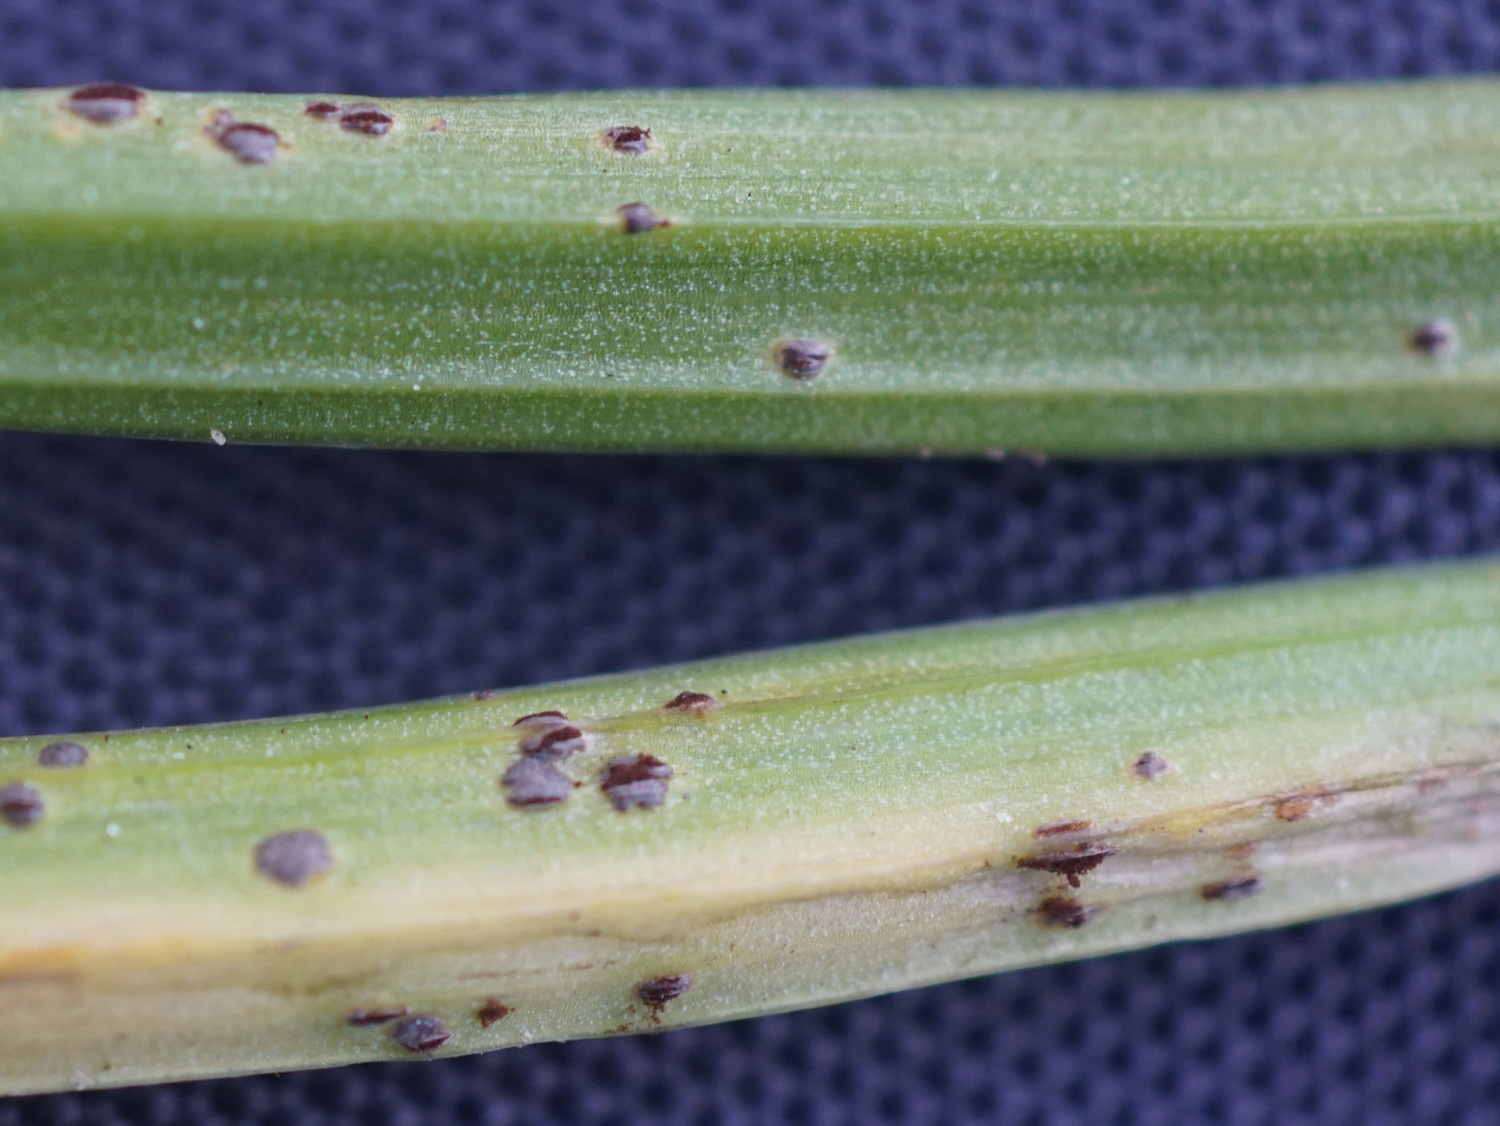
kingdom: Fungi
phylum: Basidiomycota
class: Pucciniomycetes
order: Pucciniales
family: Pucciniaceae
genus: Uromyces
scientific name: Uromyces gageae
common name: Yellow star-of-bethlehem rust
